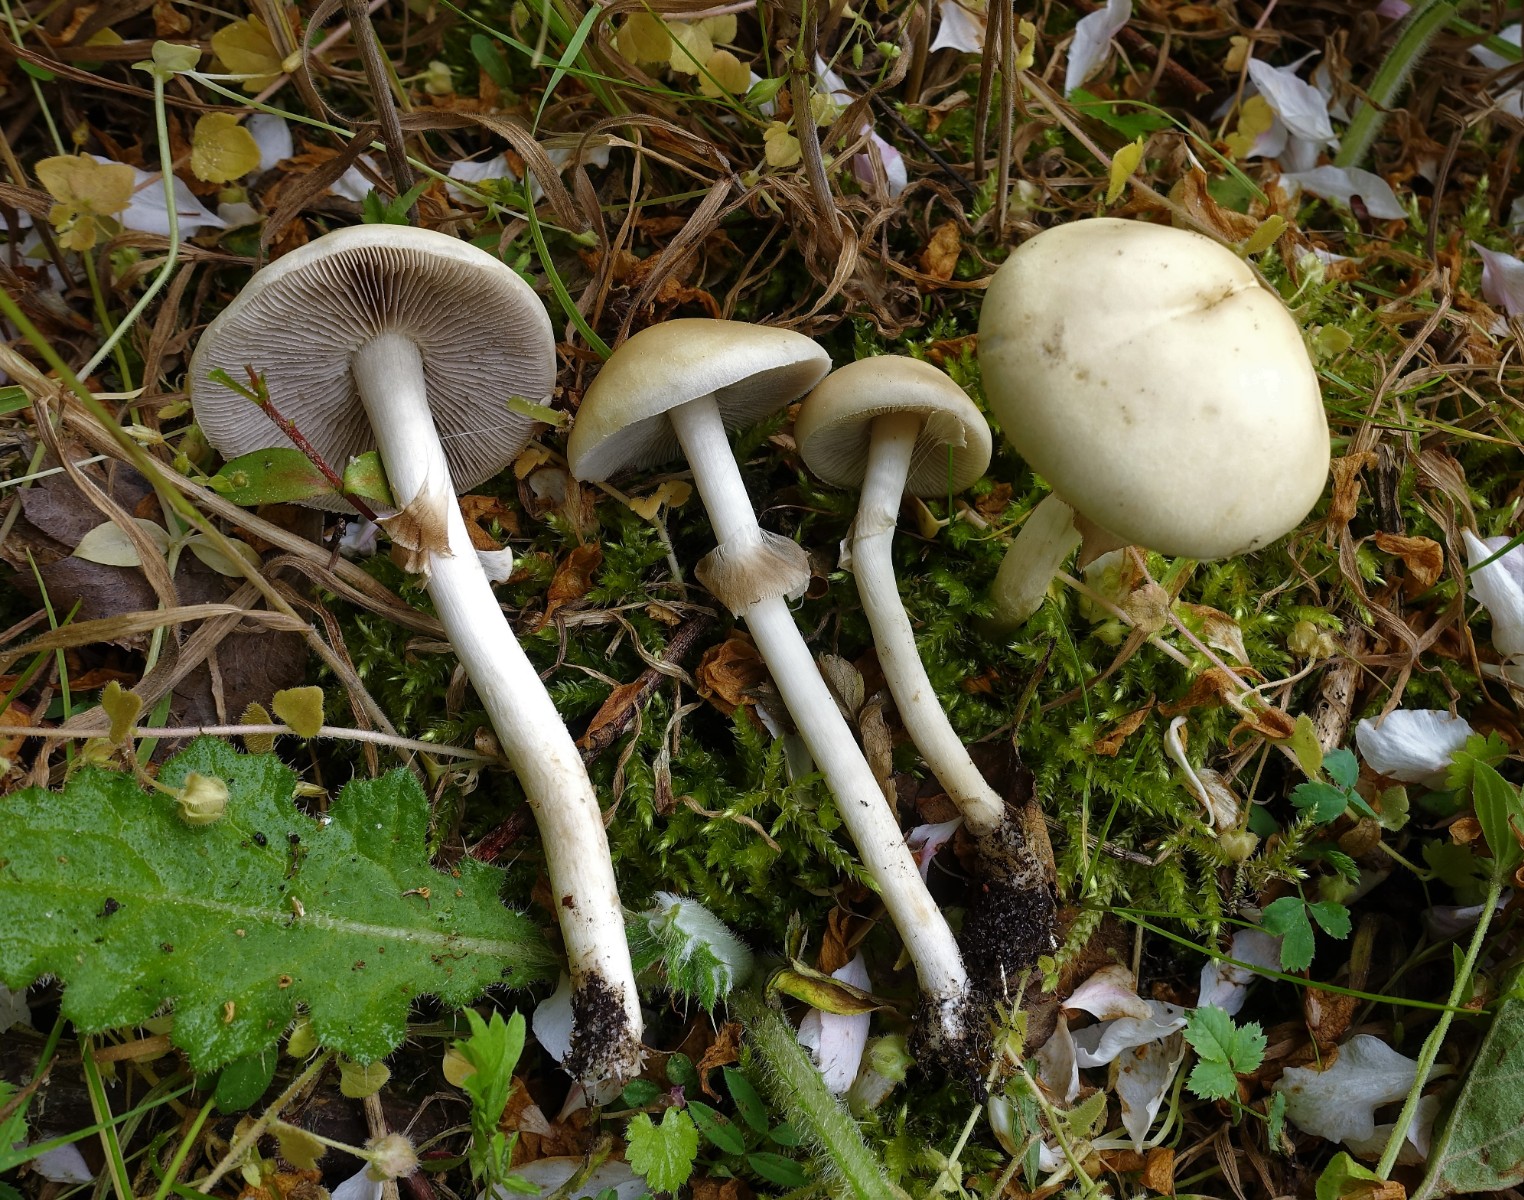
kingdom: Fungi
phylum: Basidiomycota
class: Agaricomycetes
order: Agaricales
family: Strophariaceae
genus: Agrocybe
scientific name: Agrocybe praecox
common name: tidlig agerhat
